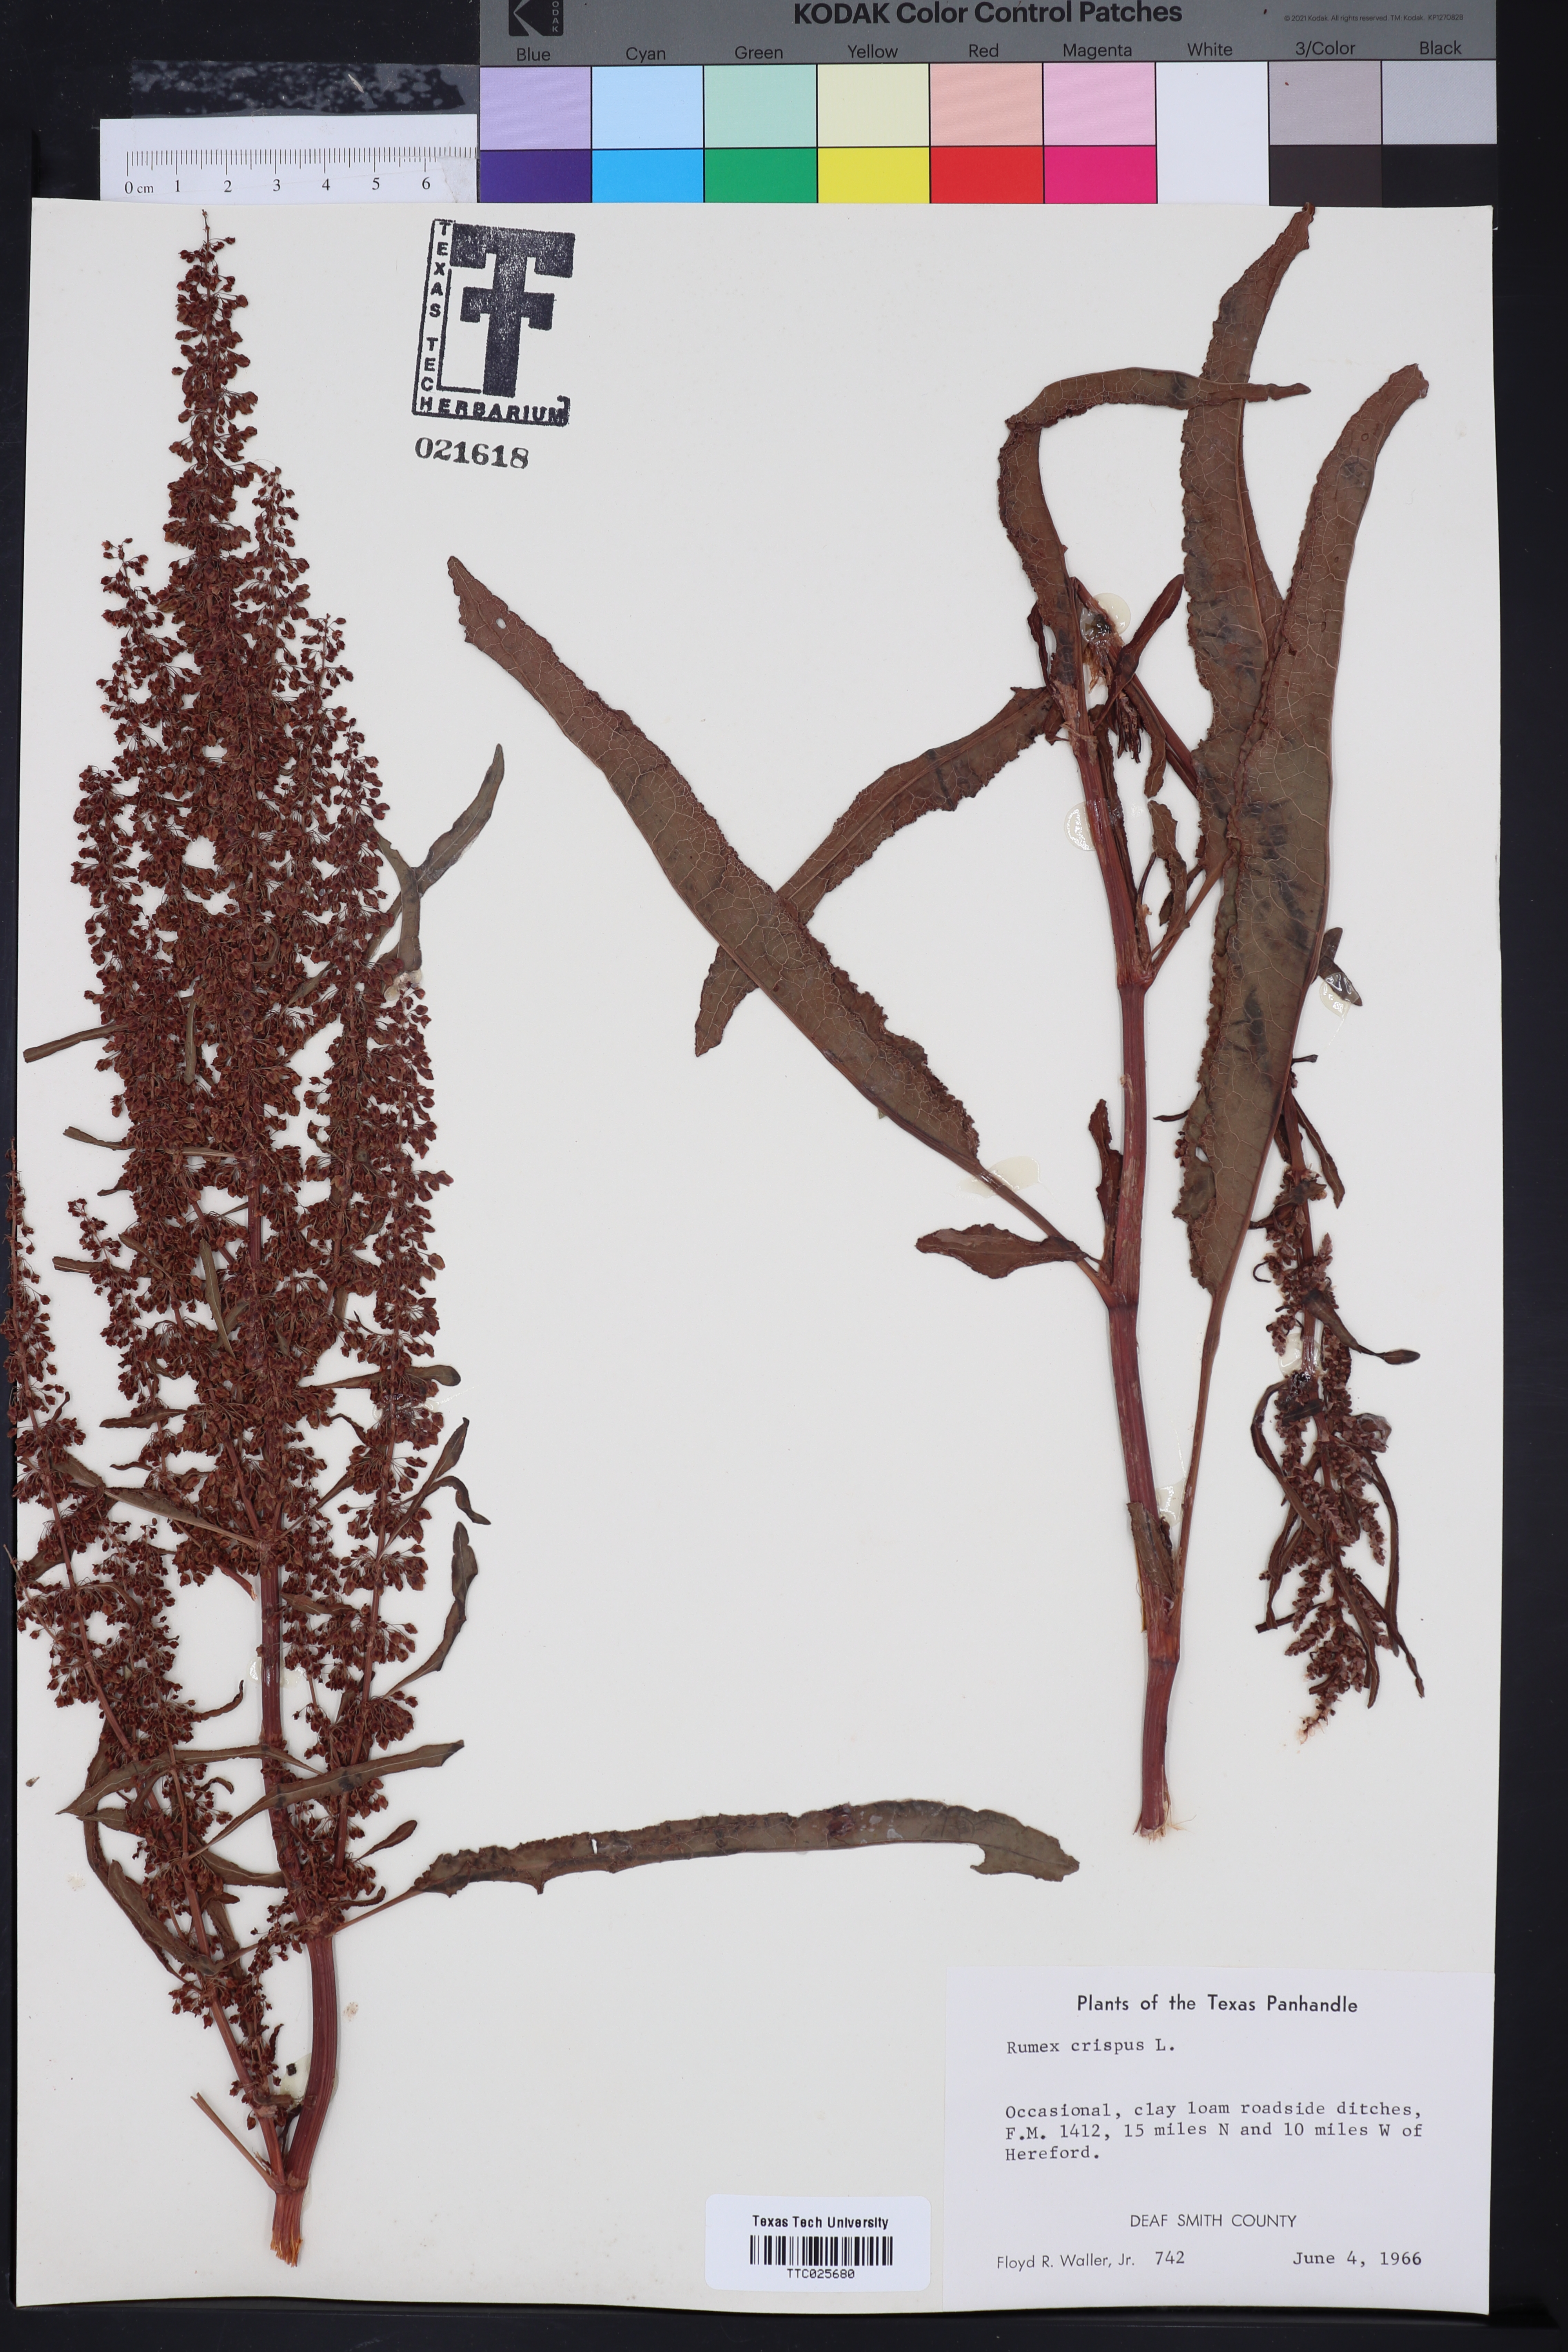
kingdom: Plantae
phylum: Tracheophyta
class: Magnoliopsida
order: Caryophyllales
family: Polygonaceae
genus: Rumex
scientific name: Rumex crispus
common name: Curled dock
